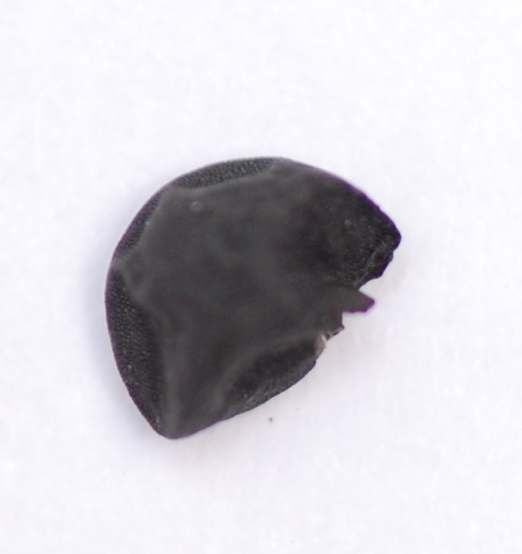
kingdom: Plantae
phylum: Tracheophyta
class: Liliopsida
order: Asparagales
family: Amaryllidaceae
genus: Allium
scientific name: Allium cepa
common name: Onion
